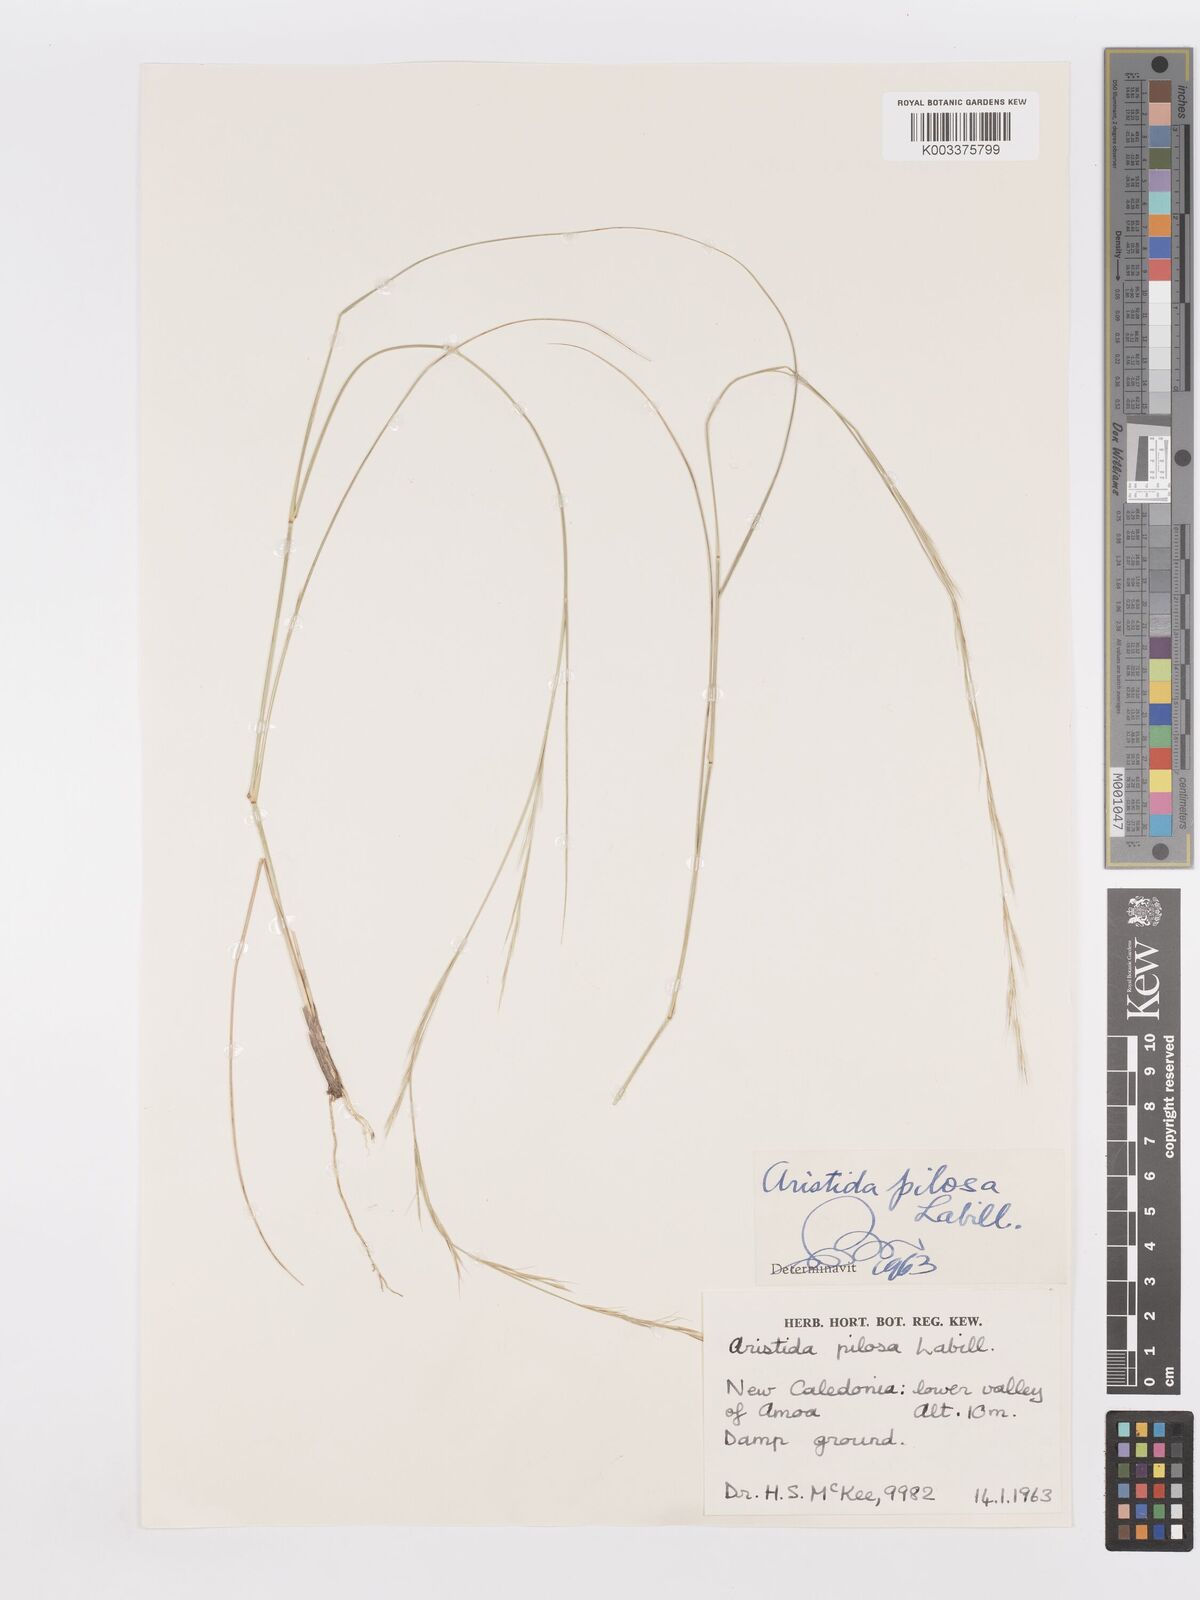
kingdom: Plantae
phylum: Tracheophyta
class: Liliopsida
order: Poales
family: Poaceae
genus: Aristida
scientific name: Aristida pilosa
